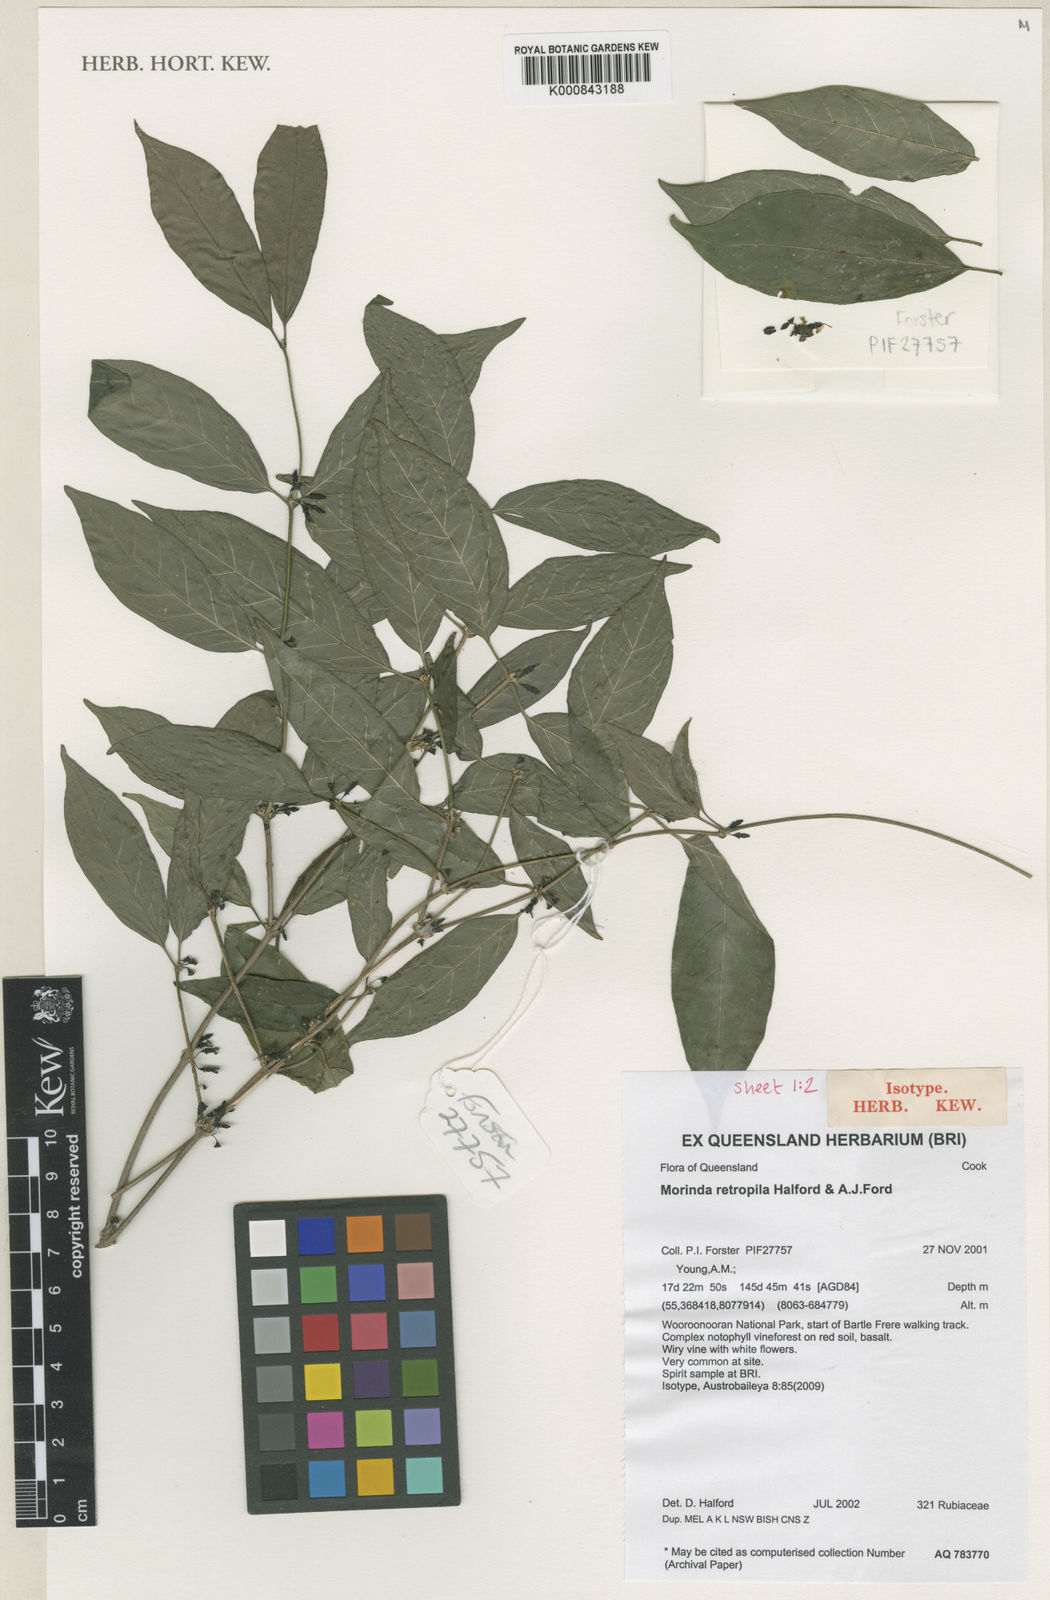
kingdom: Plantae
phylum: Tracheophyta
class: Magnoliopsida
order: Gentianales
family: Rubiaceae
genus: Gynochthodes
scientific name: Gynochthodes retropila
